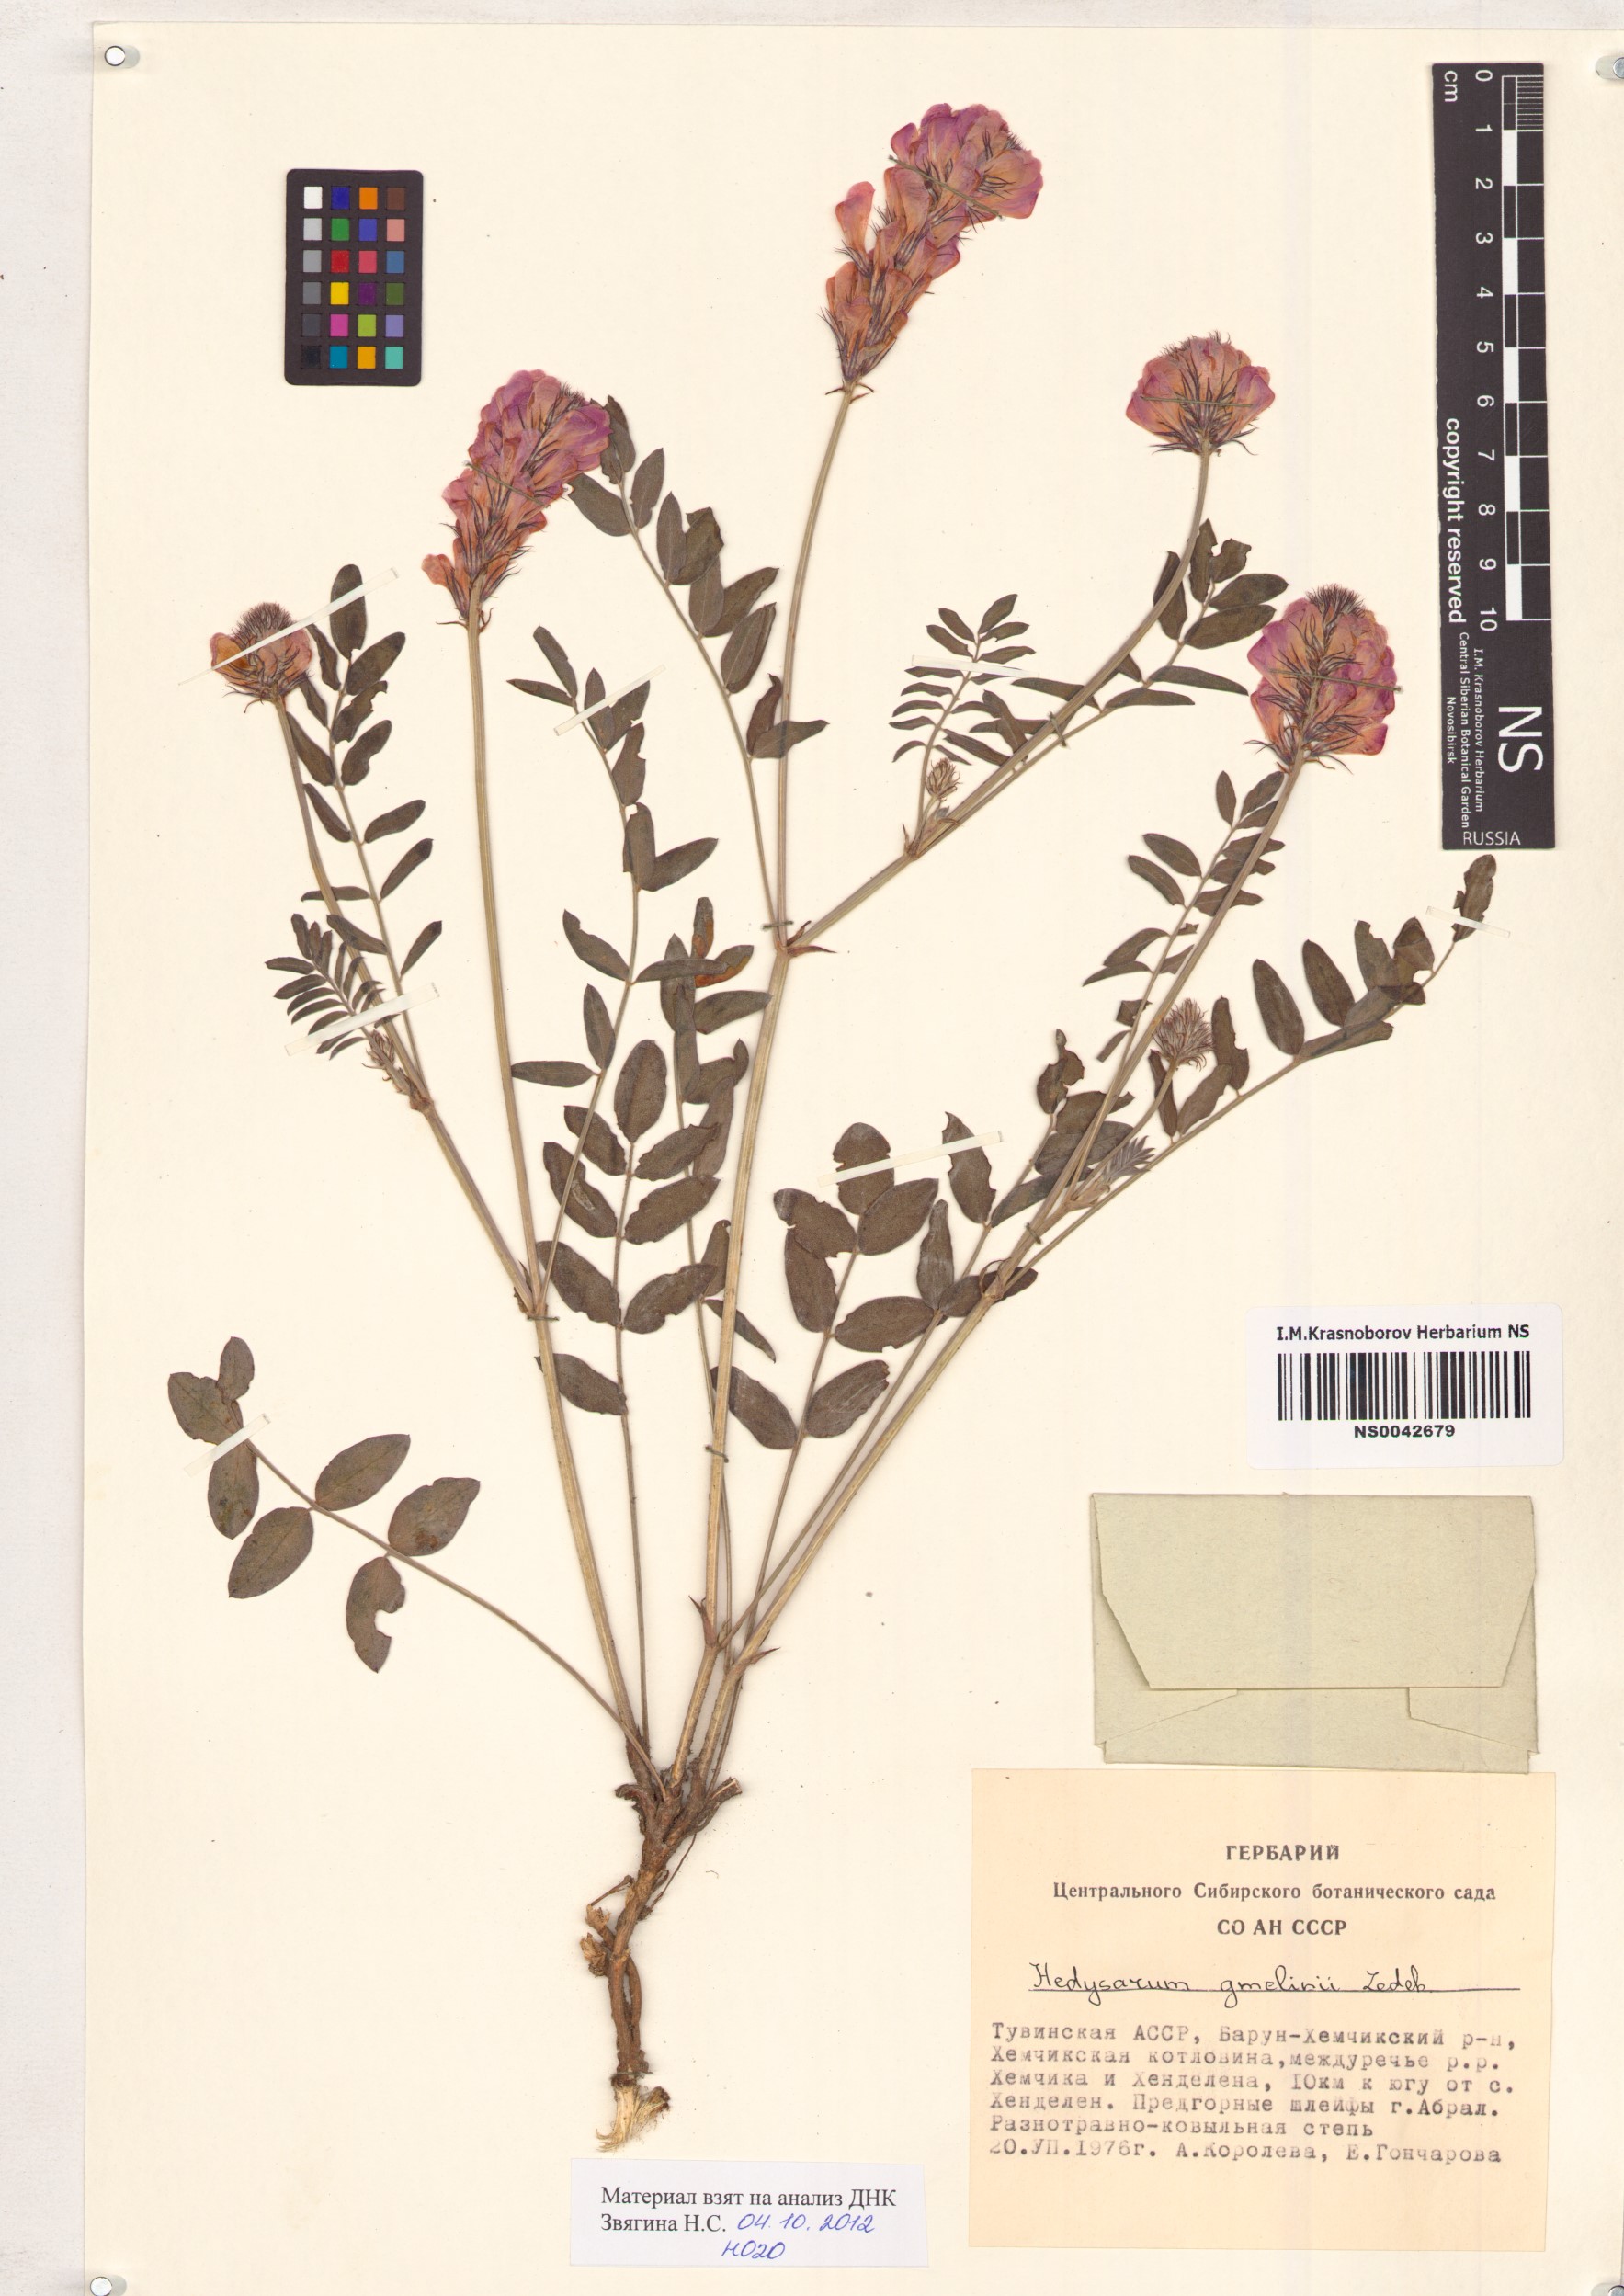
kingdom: Plantae
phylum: Tracheophyta
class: Magnoliopsida
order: Fabales
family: Fabaceae
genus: Hedysarum
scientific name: Hedysarum gmelinii
